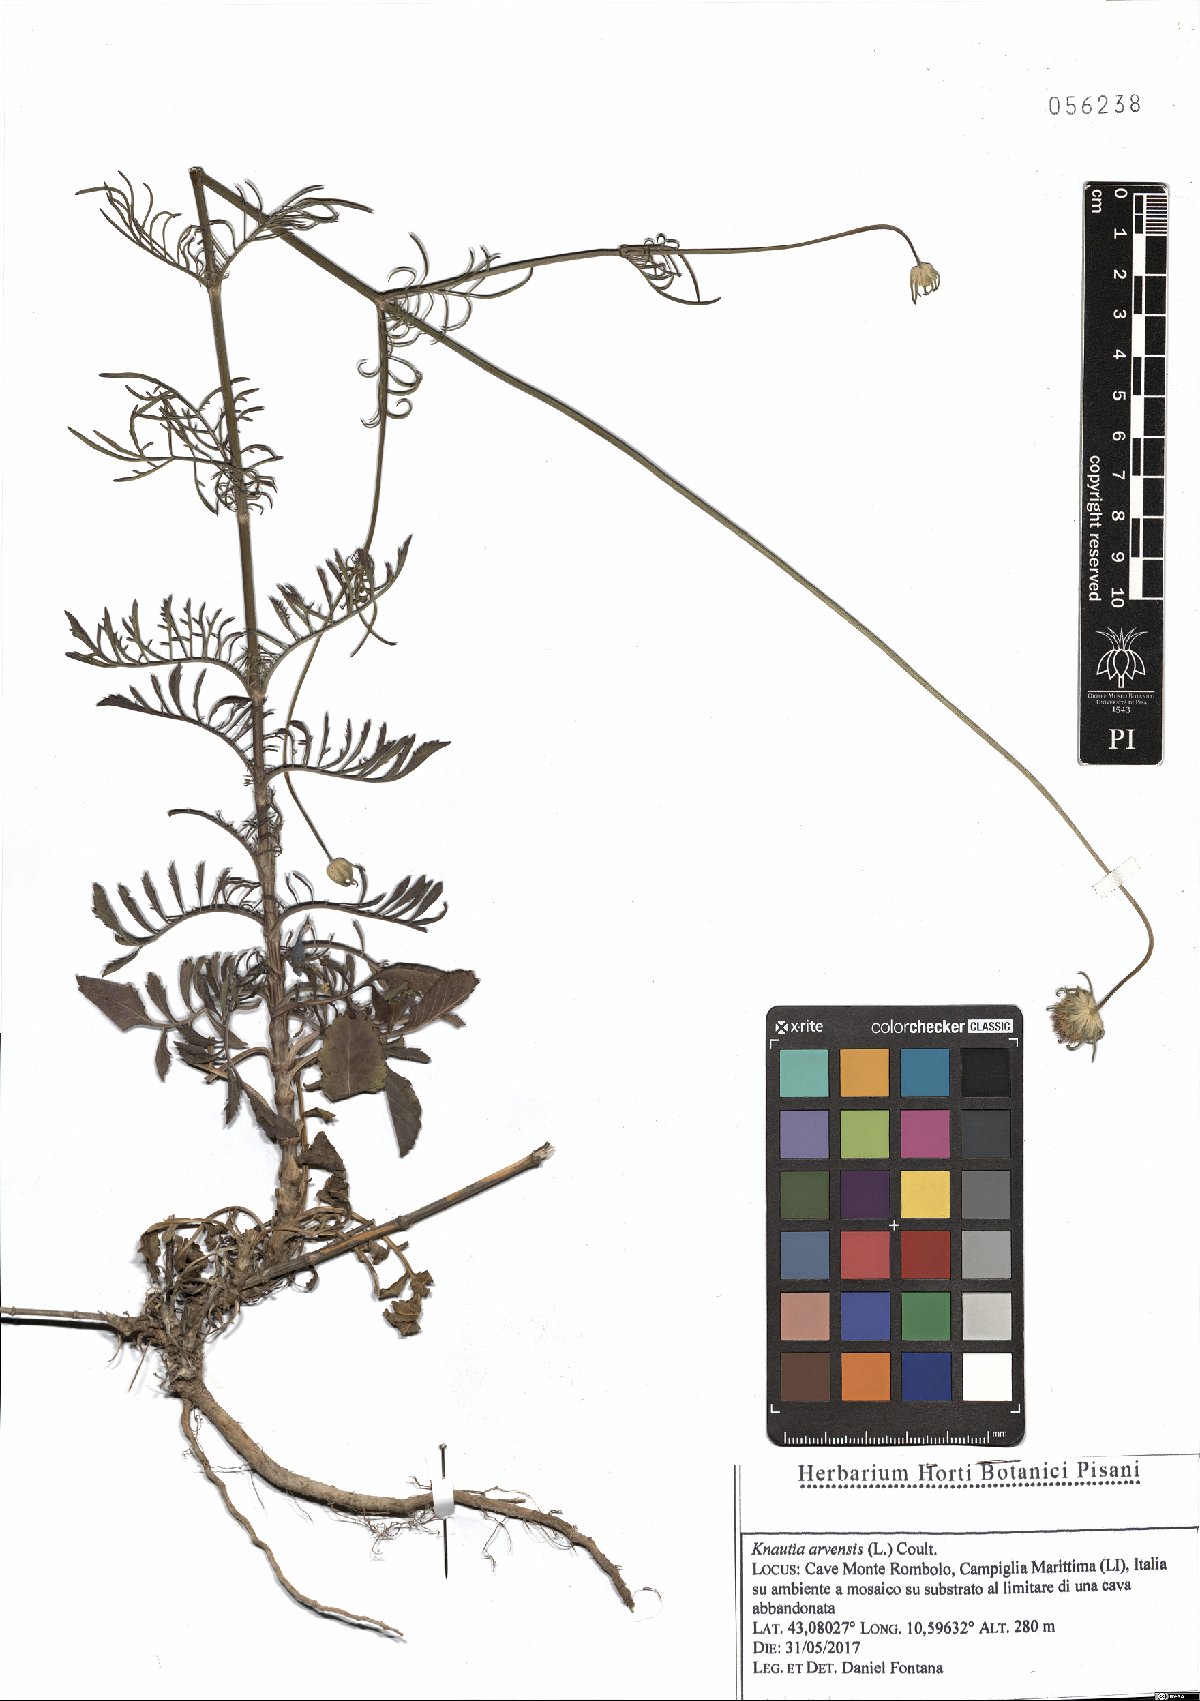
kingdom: Plantae
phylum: Tracheophyta
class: Magnoliopsida
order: Dipsacales
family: Caprifoliaceae
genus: Knautia
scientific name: Knautia arvensis
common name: Field scabiosa
